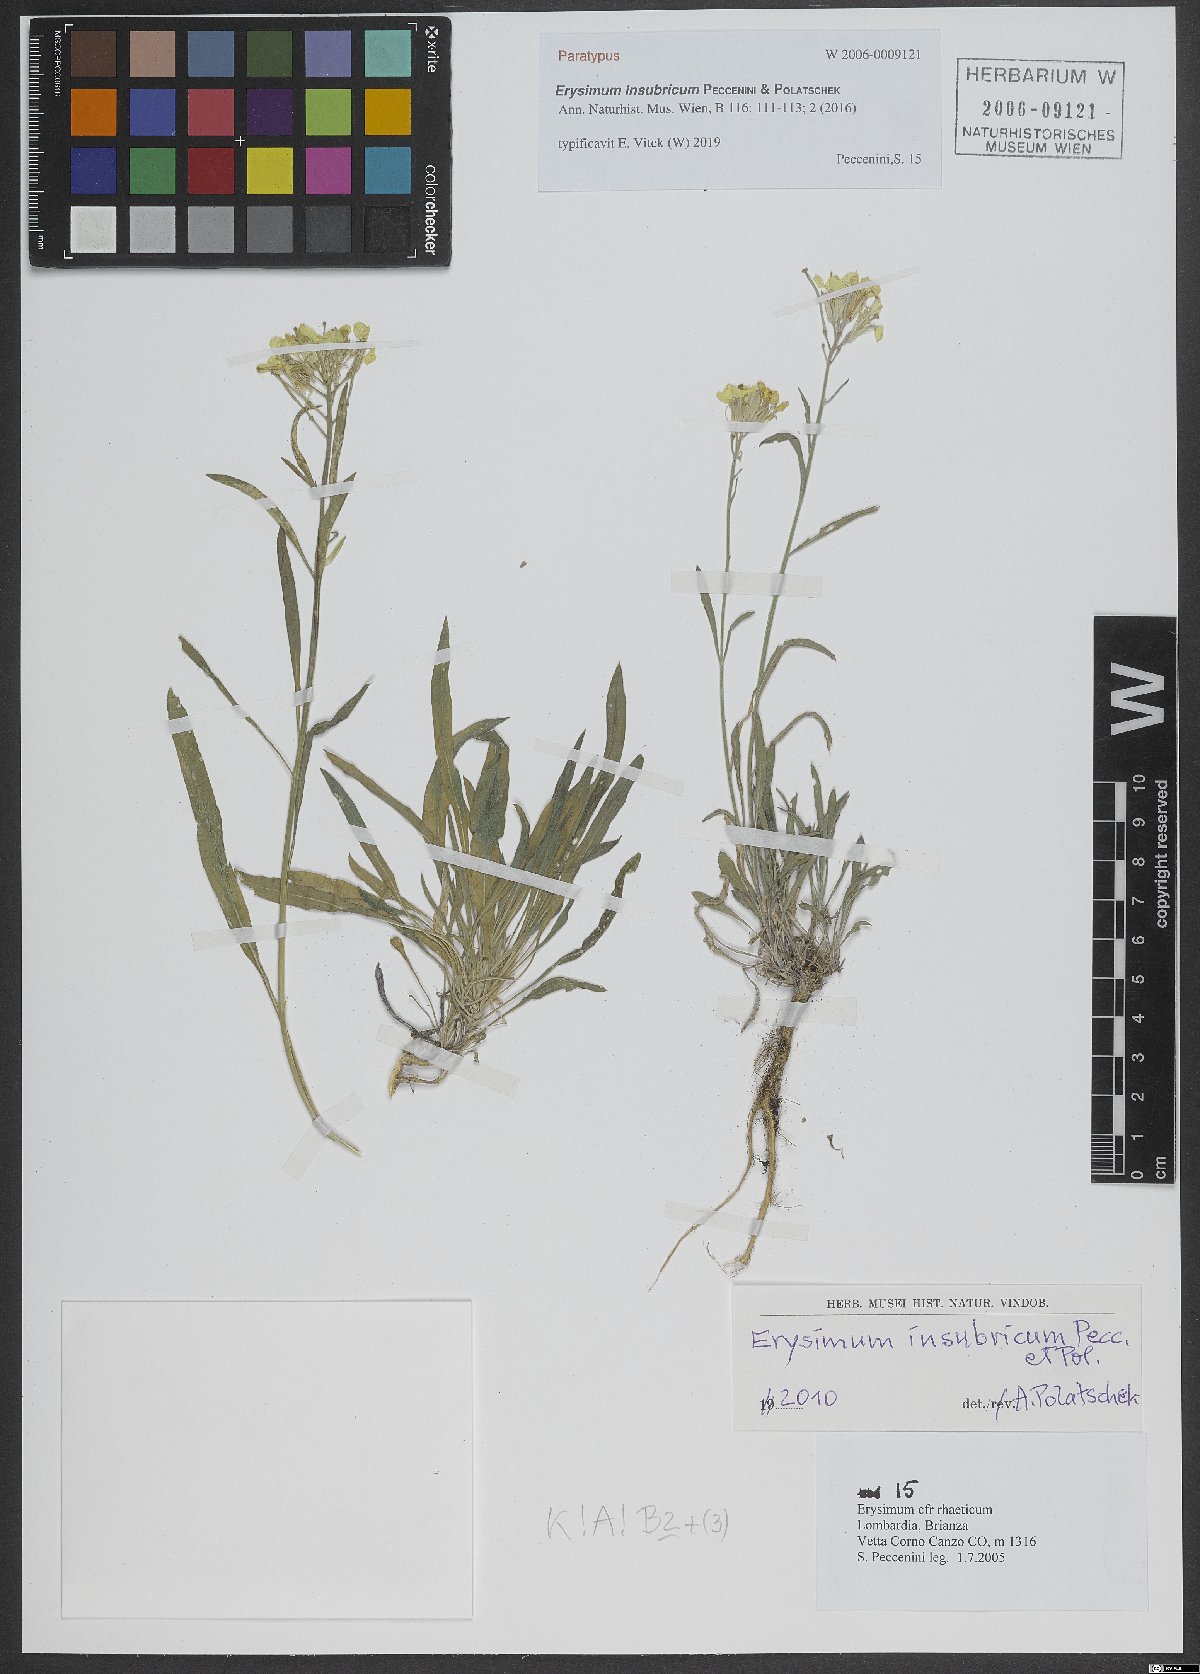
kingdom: Plantae
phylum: Tracheophyta
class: Magnoliopsida
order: Brassicales
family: Brassicaceae
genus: Erysimum
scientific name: Erysimum insubricum
